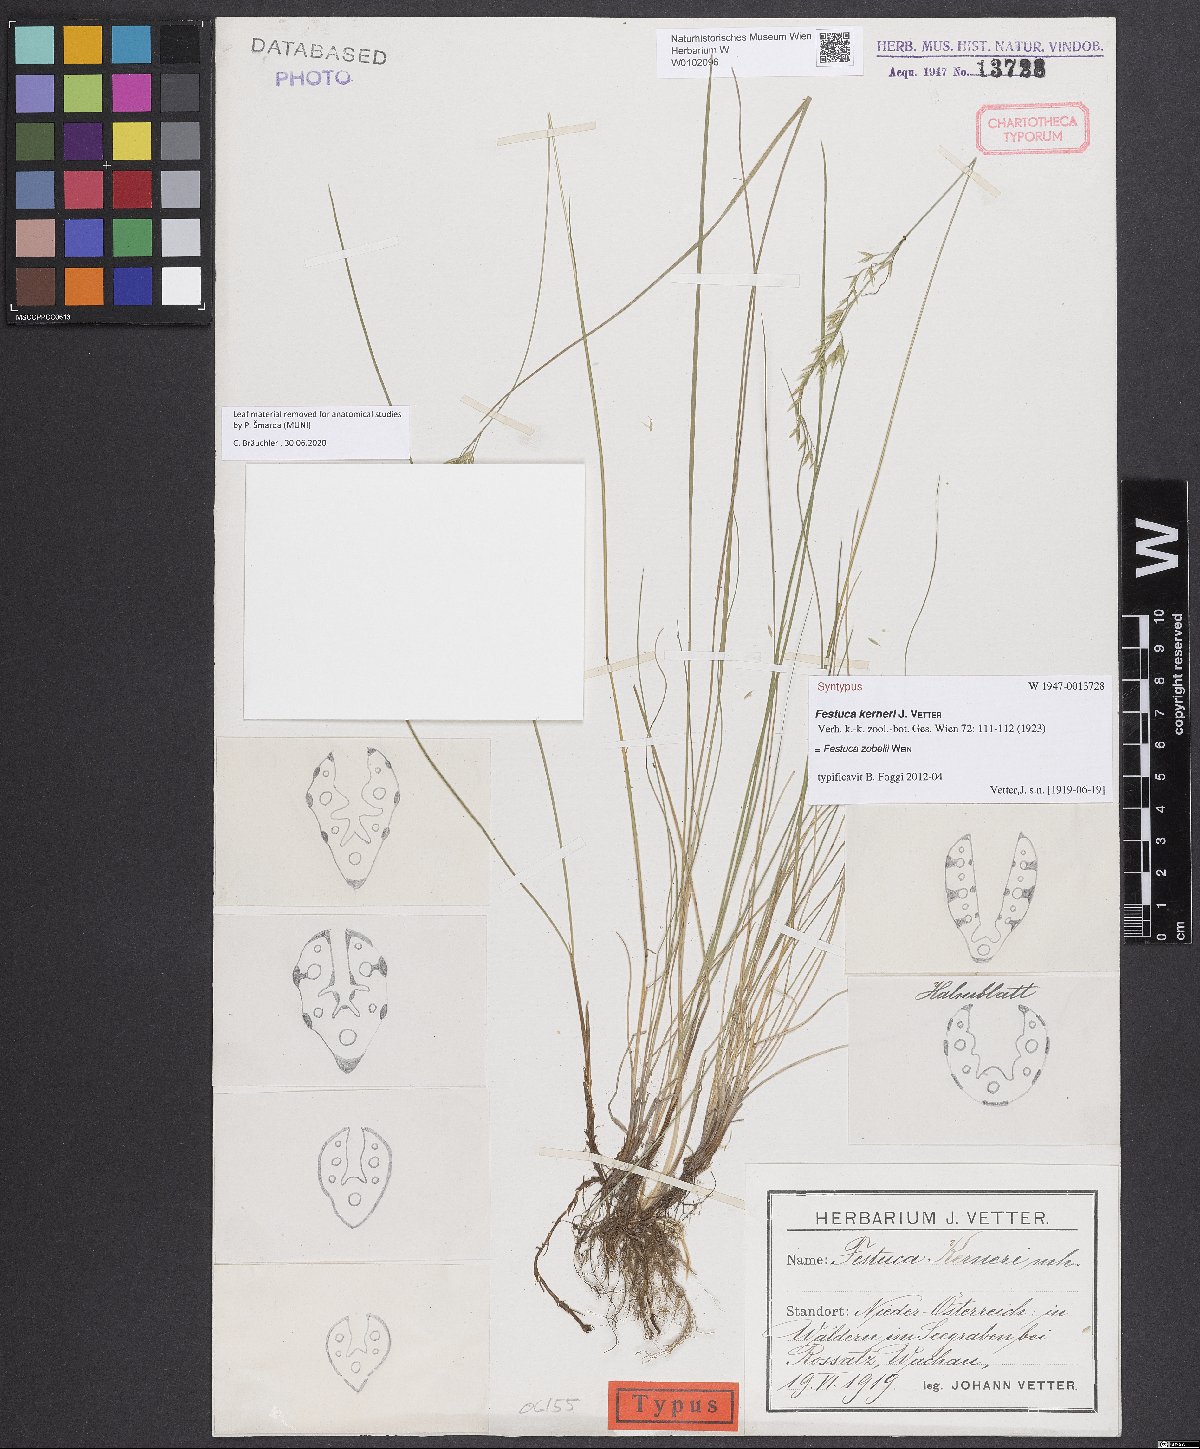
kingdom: Plantae
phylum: Tracheophyta
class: Liliopsida
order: Poales
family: Poaceae
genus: Festuca
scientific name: Festuca zobelii
